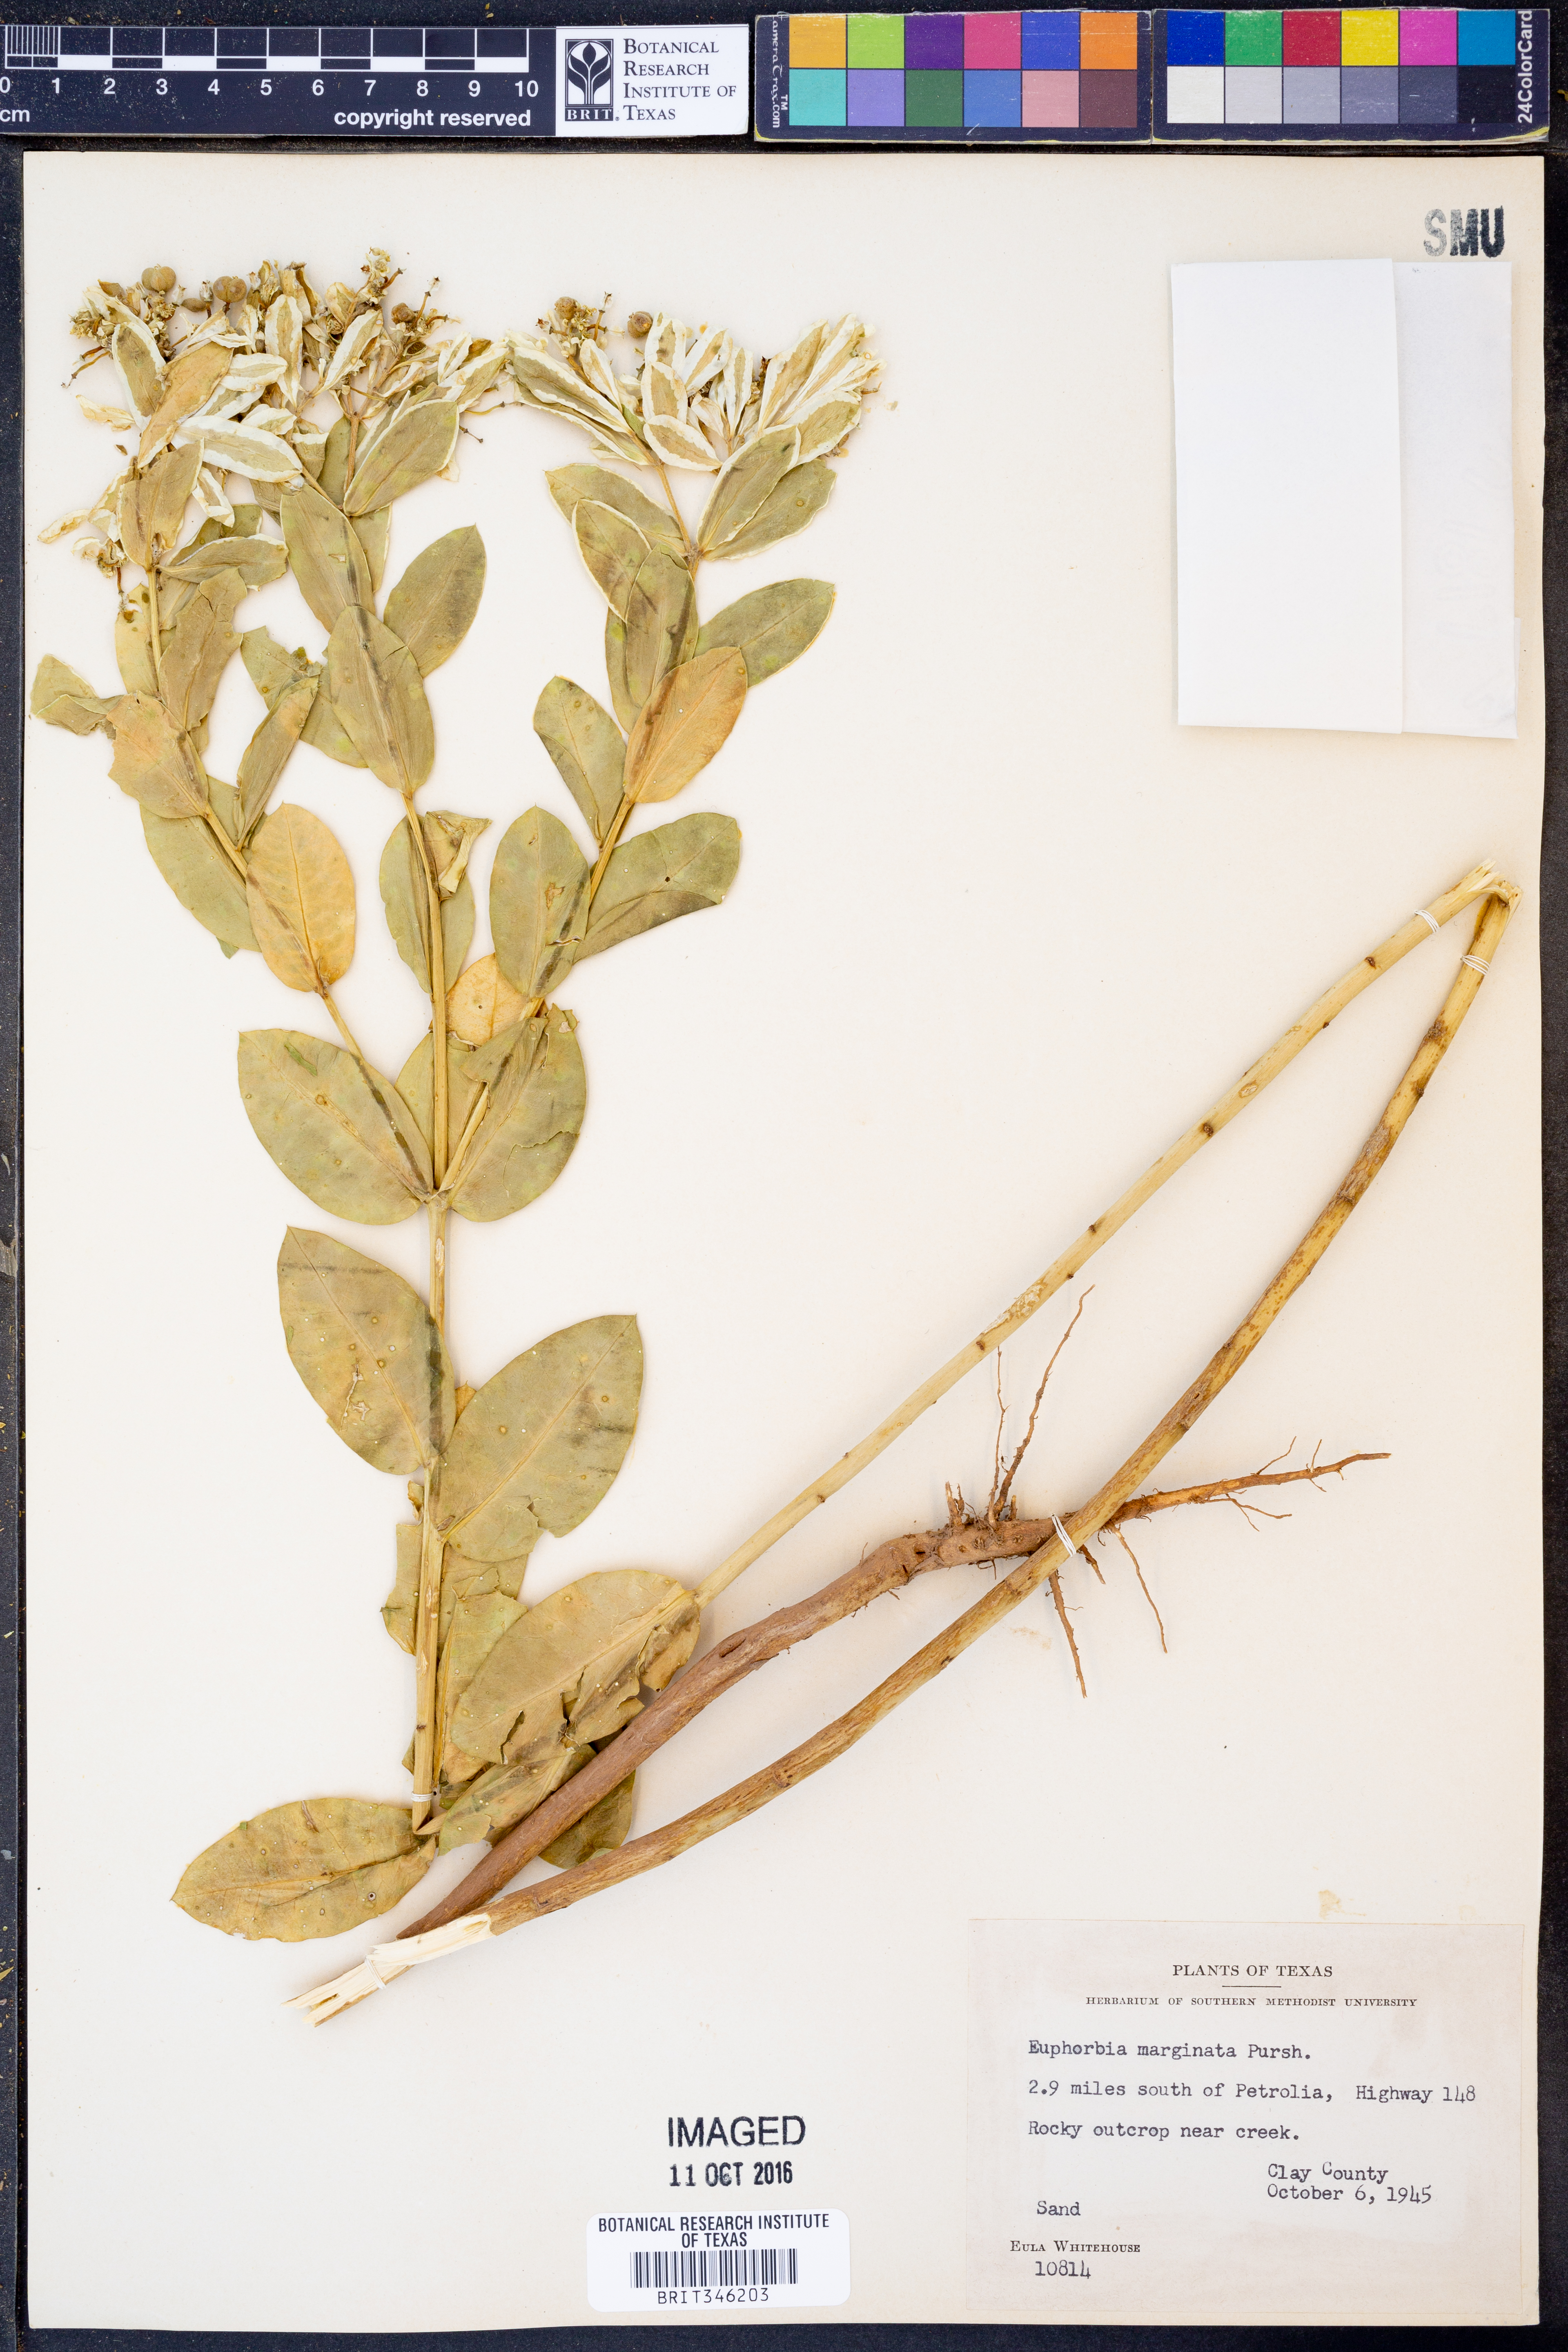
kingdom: Plantae
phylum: Tracheophyta
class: Magnoliopsida
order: Malpighiales
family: Euphorbiaceae
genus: Euphorbia
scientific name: Euphorbia marginata
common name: Ghostweed
